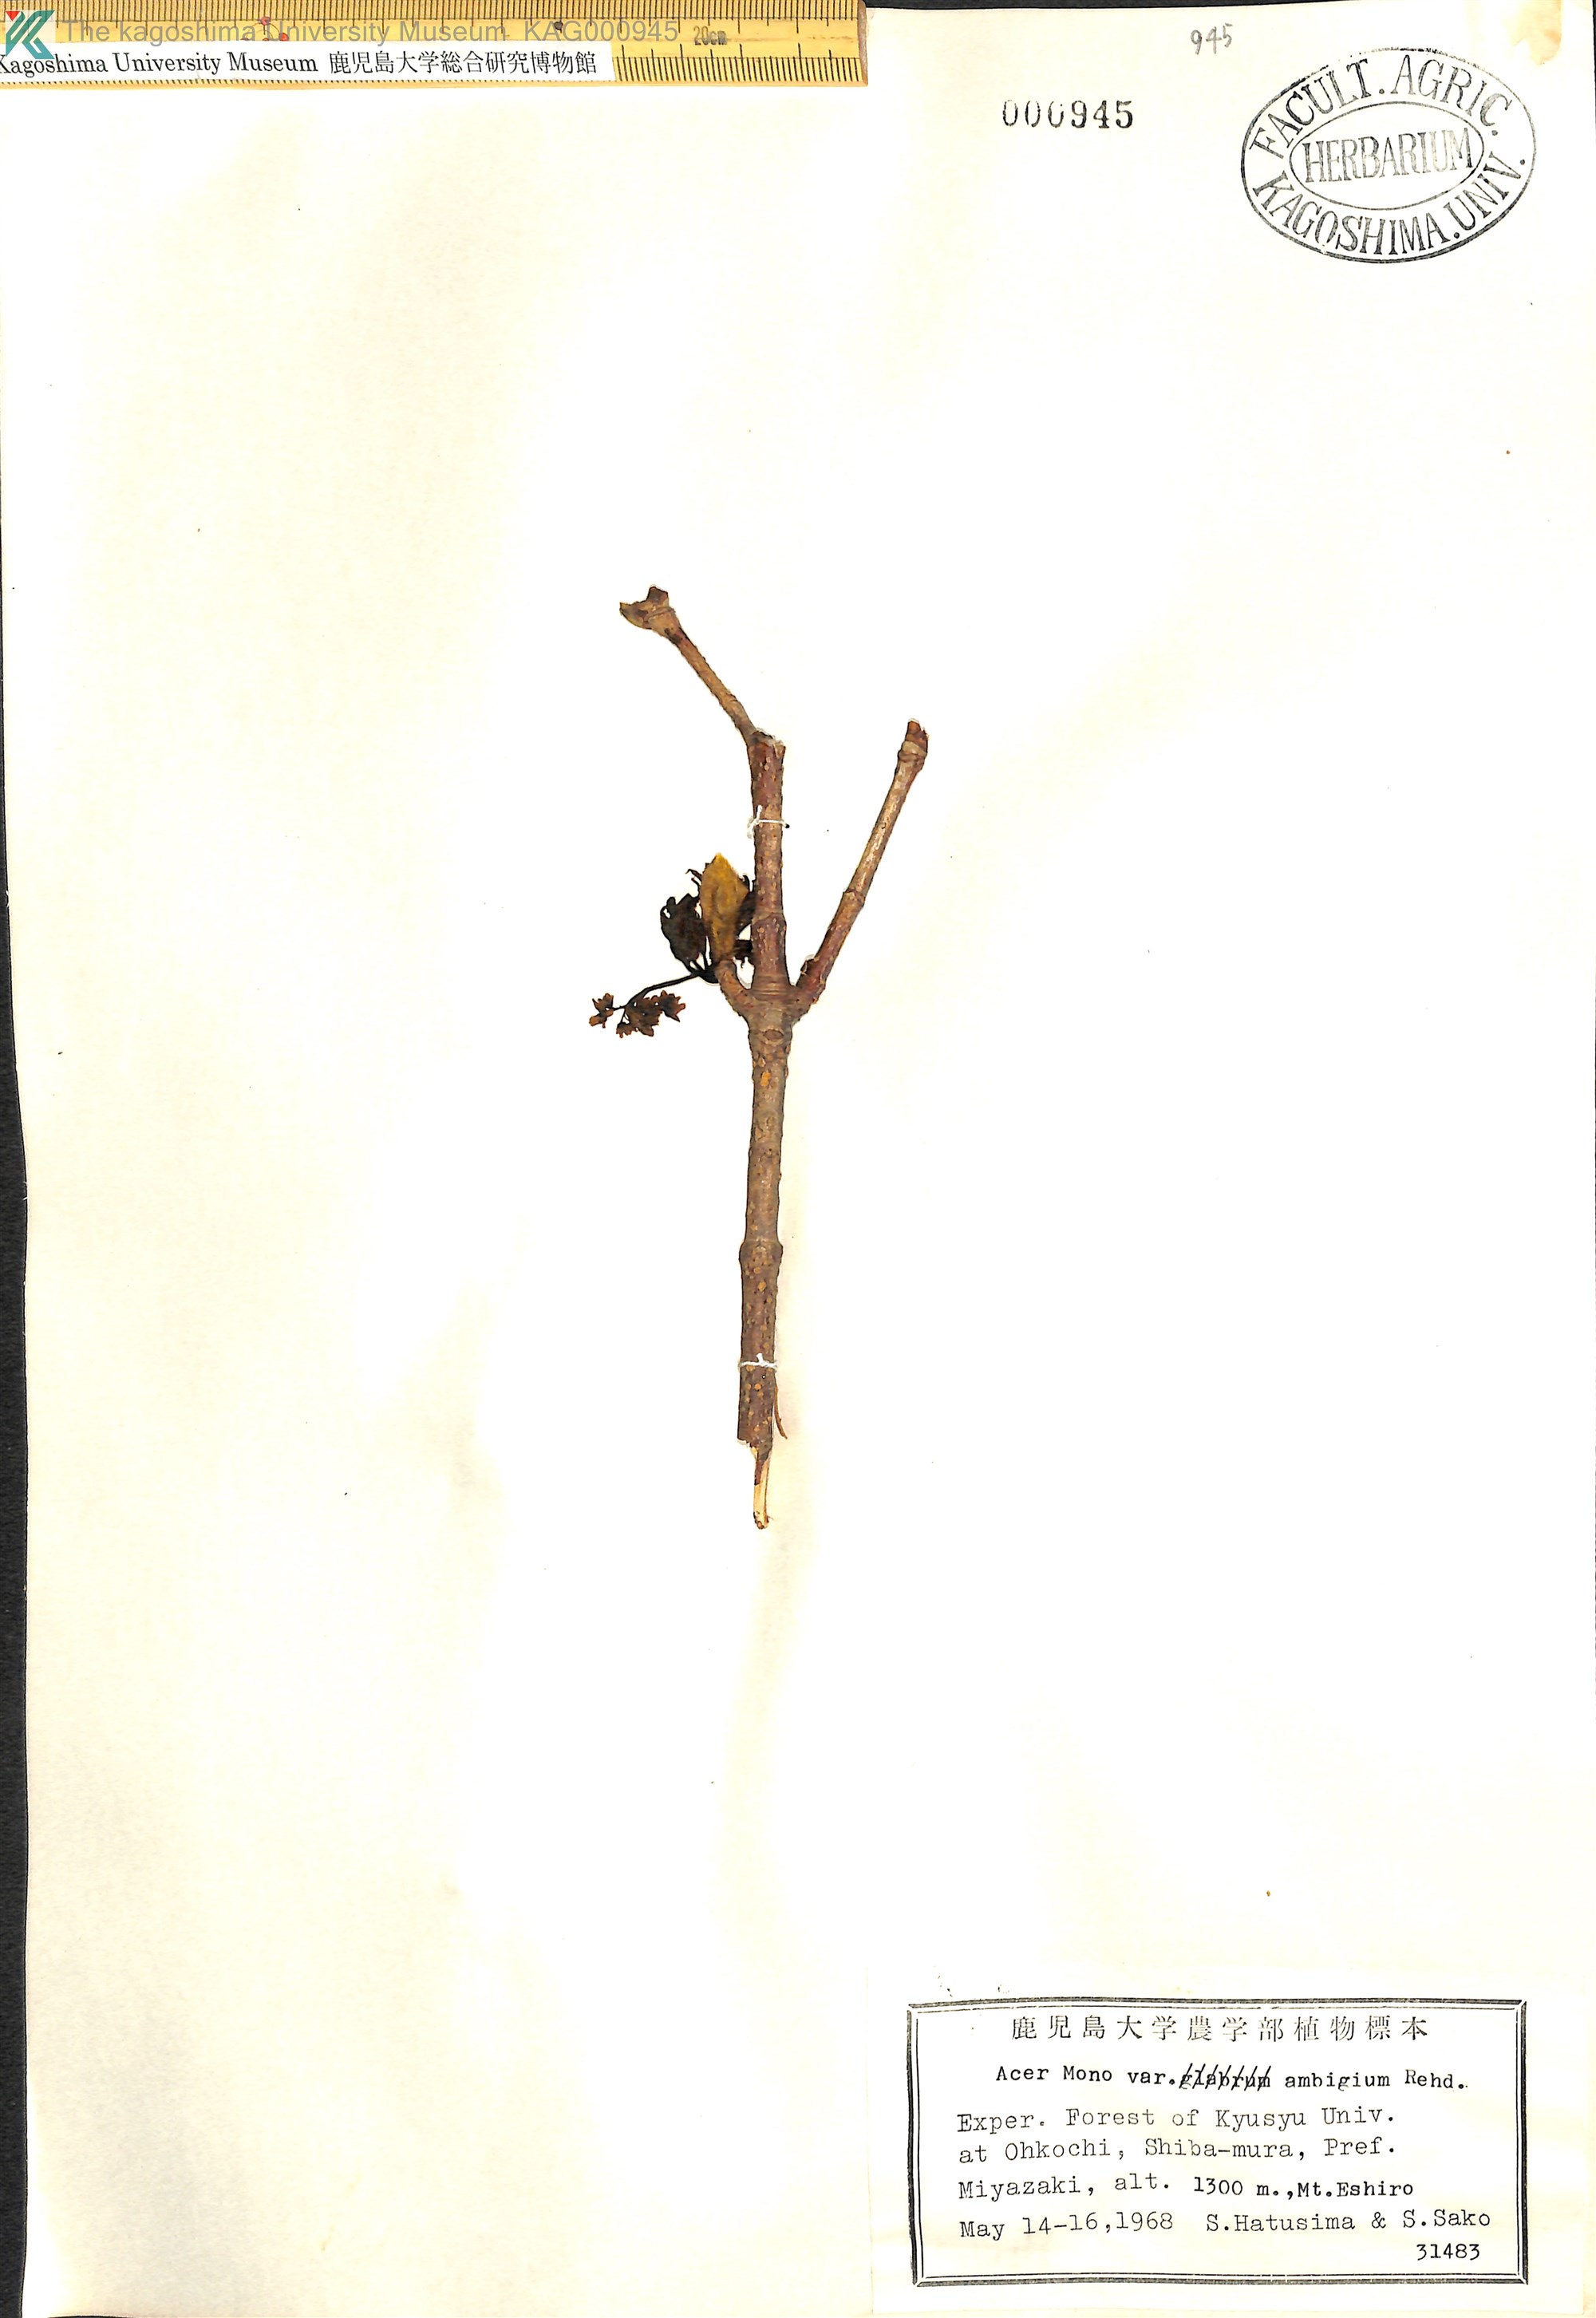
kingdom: Plantae
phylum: Tracheophyta
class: Magnoliopsida
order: Sapindales
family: Sapindaceae
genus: Acer
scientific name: Acer pictum
